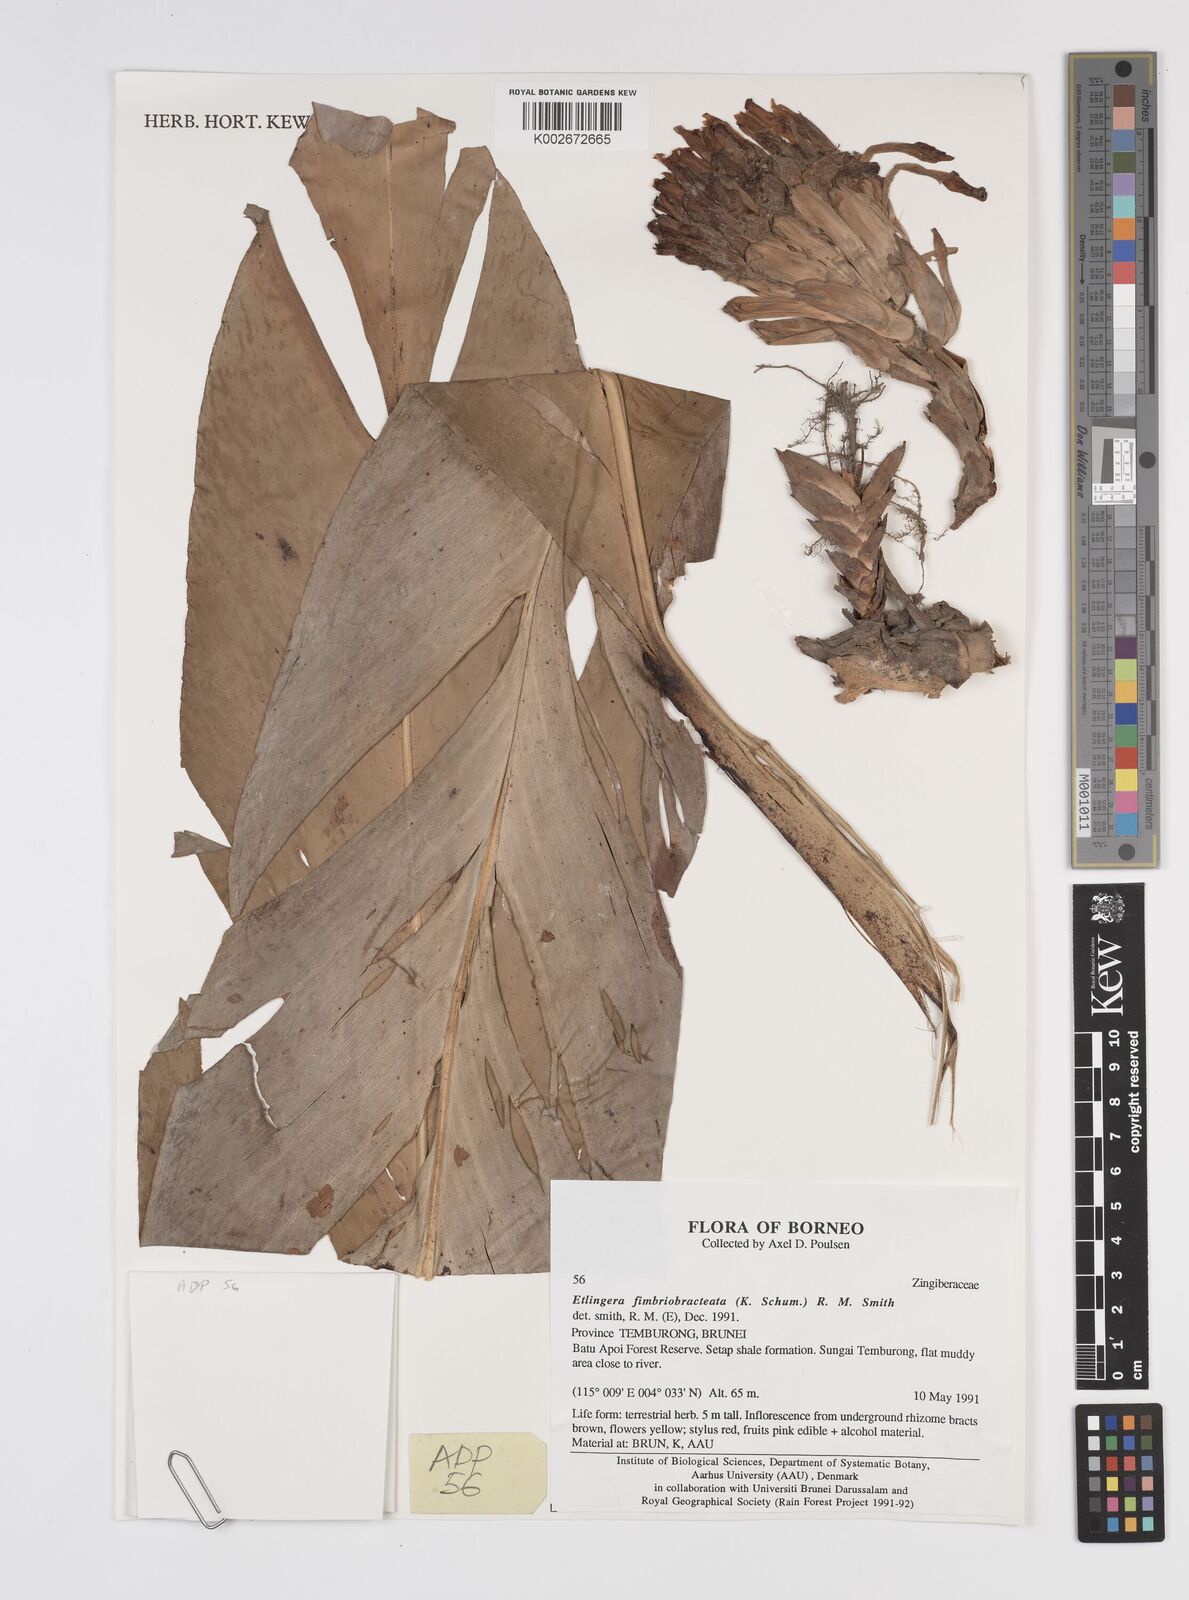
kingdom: Plantae
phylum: Tracheophyta
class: Liliopsida
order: Zingiberales
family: Zingiberaceae
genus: Etlingera
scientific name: Etlingera fimbriobracteata
